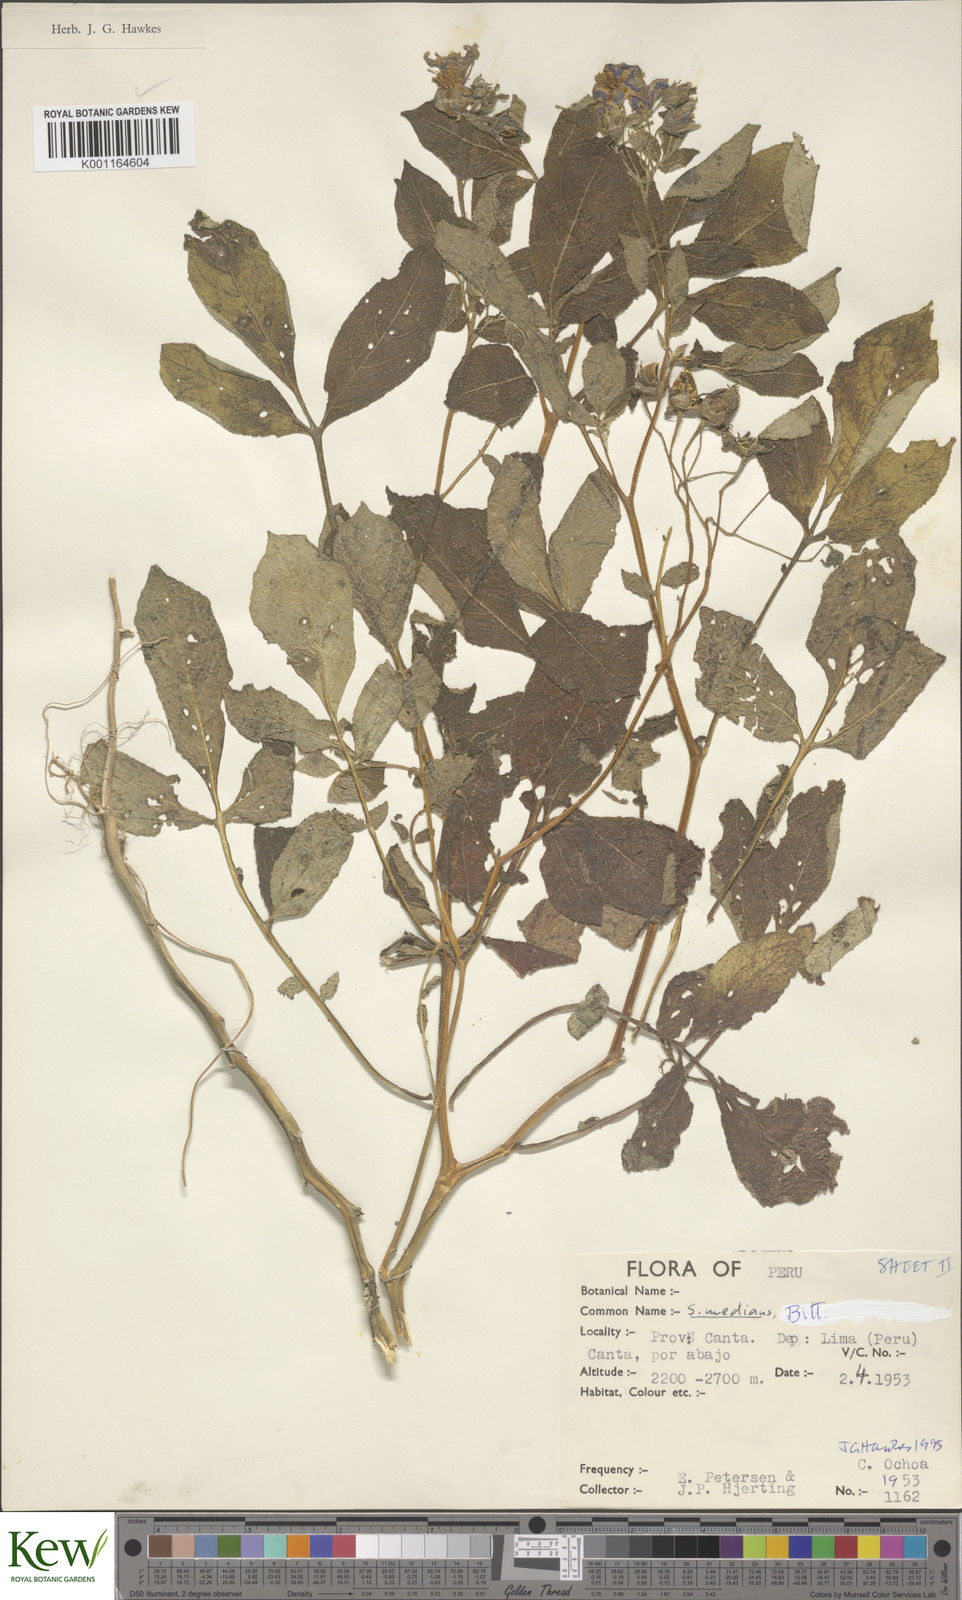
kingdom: Plantae
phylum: Tracheophyta
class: Magnoliopsida
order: Solanales
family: Solanaceae
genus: Solanum
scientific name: Solanum medians
